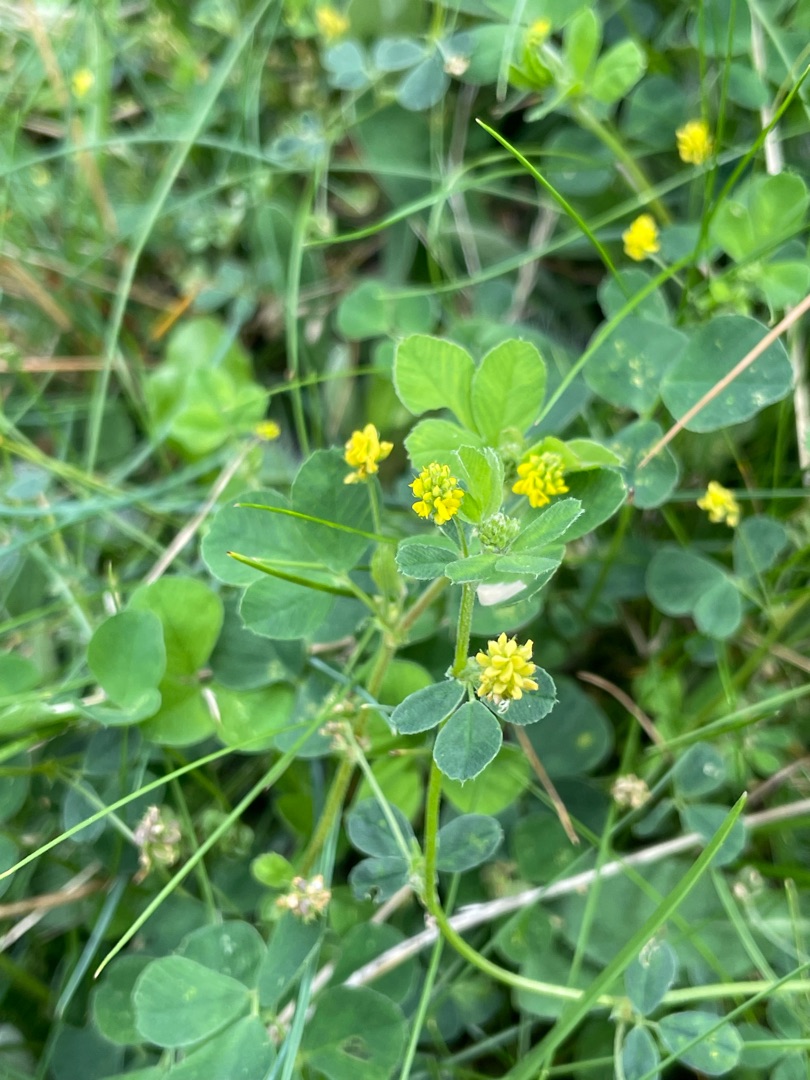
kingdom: Plantae
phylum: Tracheophyta
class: Magnoliopsida
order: Fabales
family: Fabaceae
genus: Medicago
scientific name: Medicago lupulina
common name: Humle-sneglebælg
